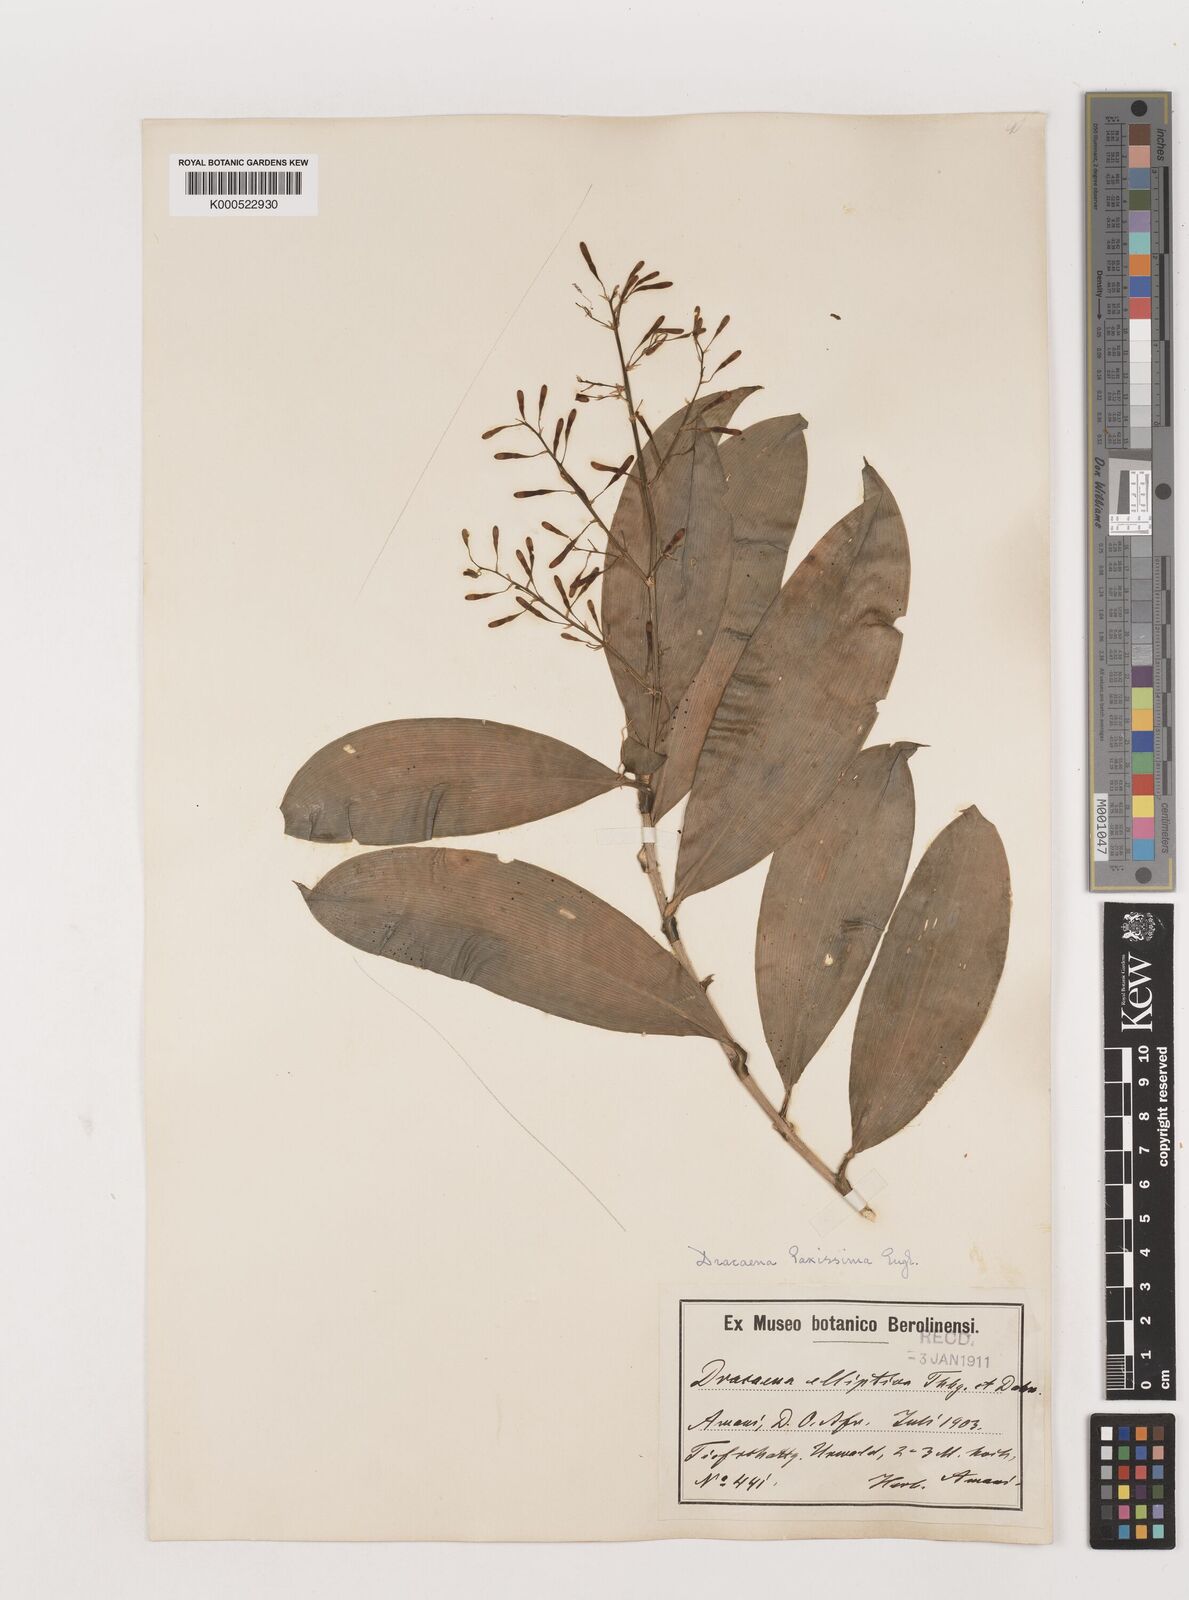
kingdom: Plantae
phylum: Tracheophyta
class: Liliopsida
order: Asparagales
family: Asparagaceae
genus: Dracaena
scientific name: Dracaena laxissima
